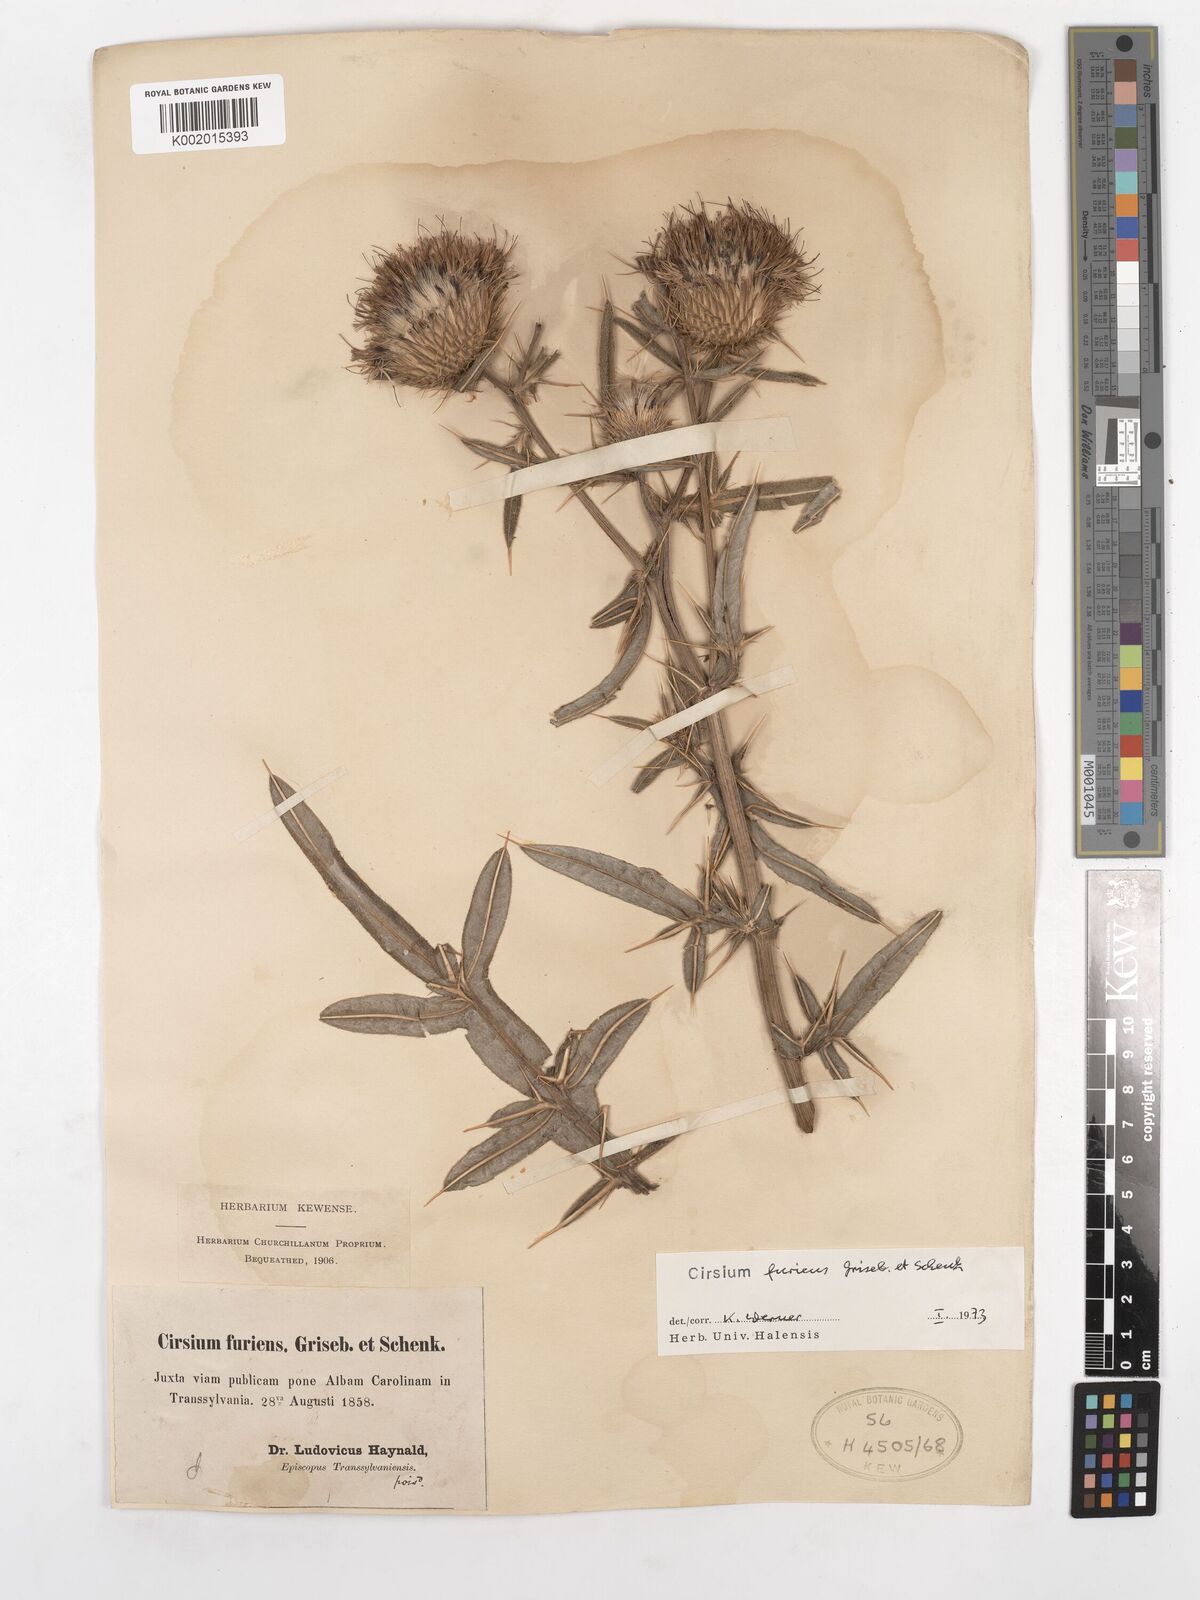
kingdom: Plantae
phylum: Tracheophyta
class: Magnoliopsida
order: Asterales
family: Asteraceae
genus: Lophiolepis
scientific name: Lophiolepis furiens
